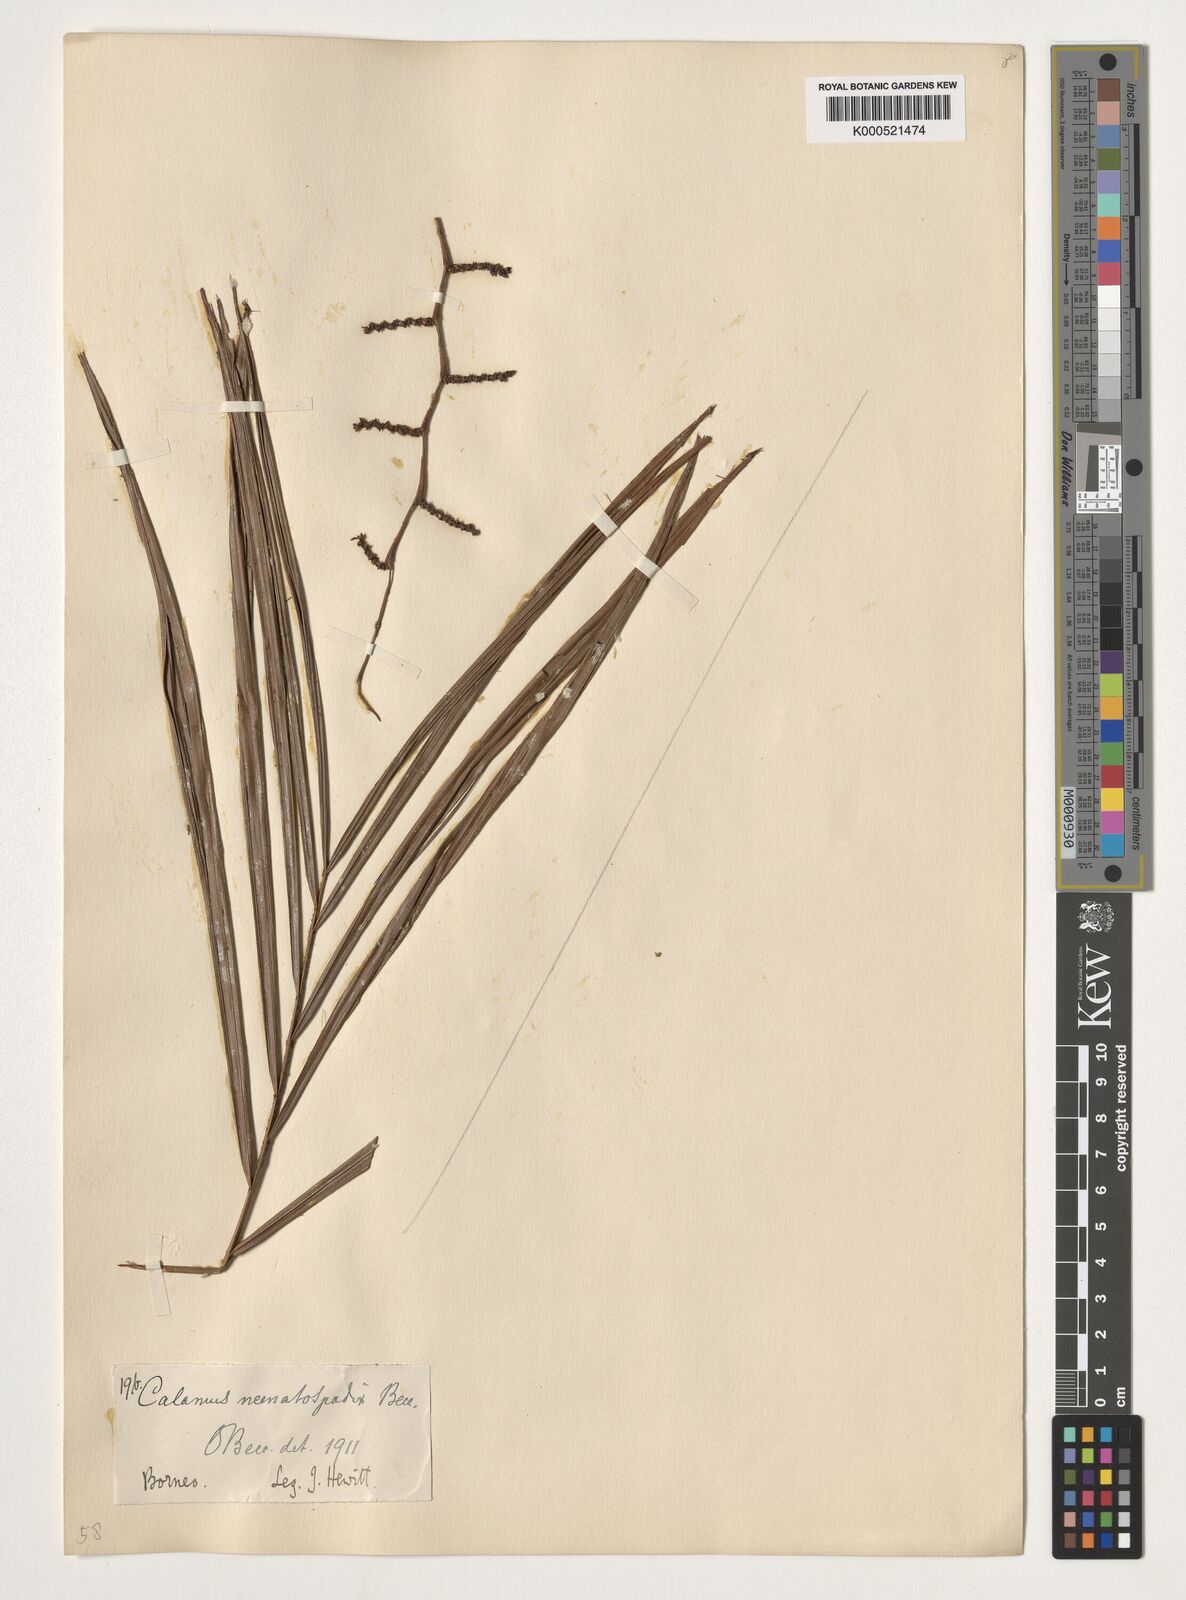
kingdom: Plantae
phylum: Tracheophyta
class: Liliopsida
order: Arecales
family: Arecaceae
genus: Calamus
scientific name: Calamus nematospadix
